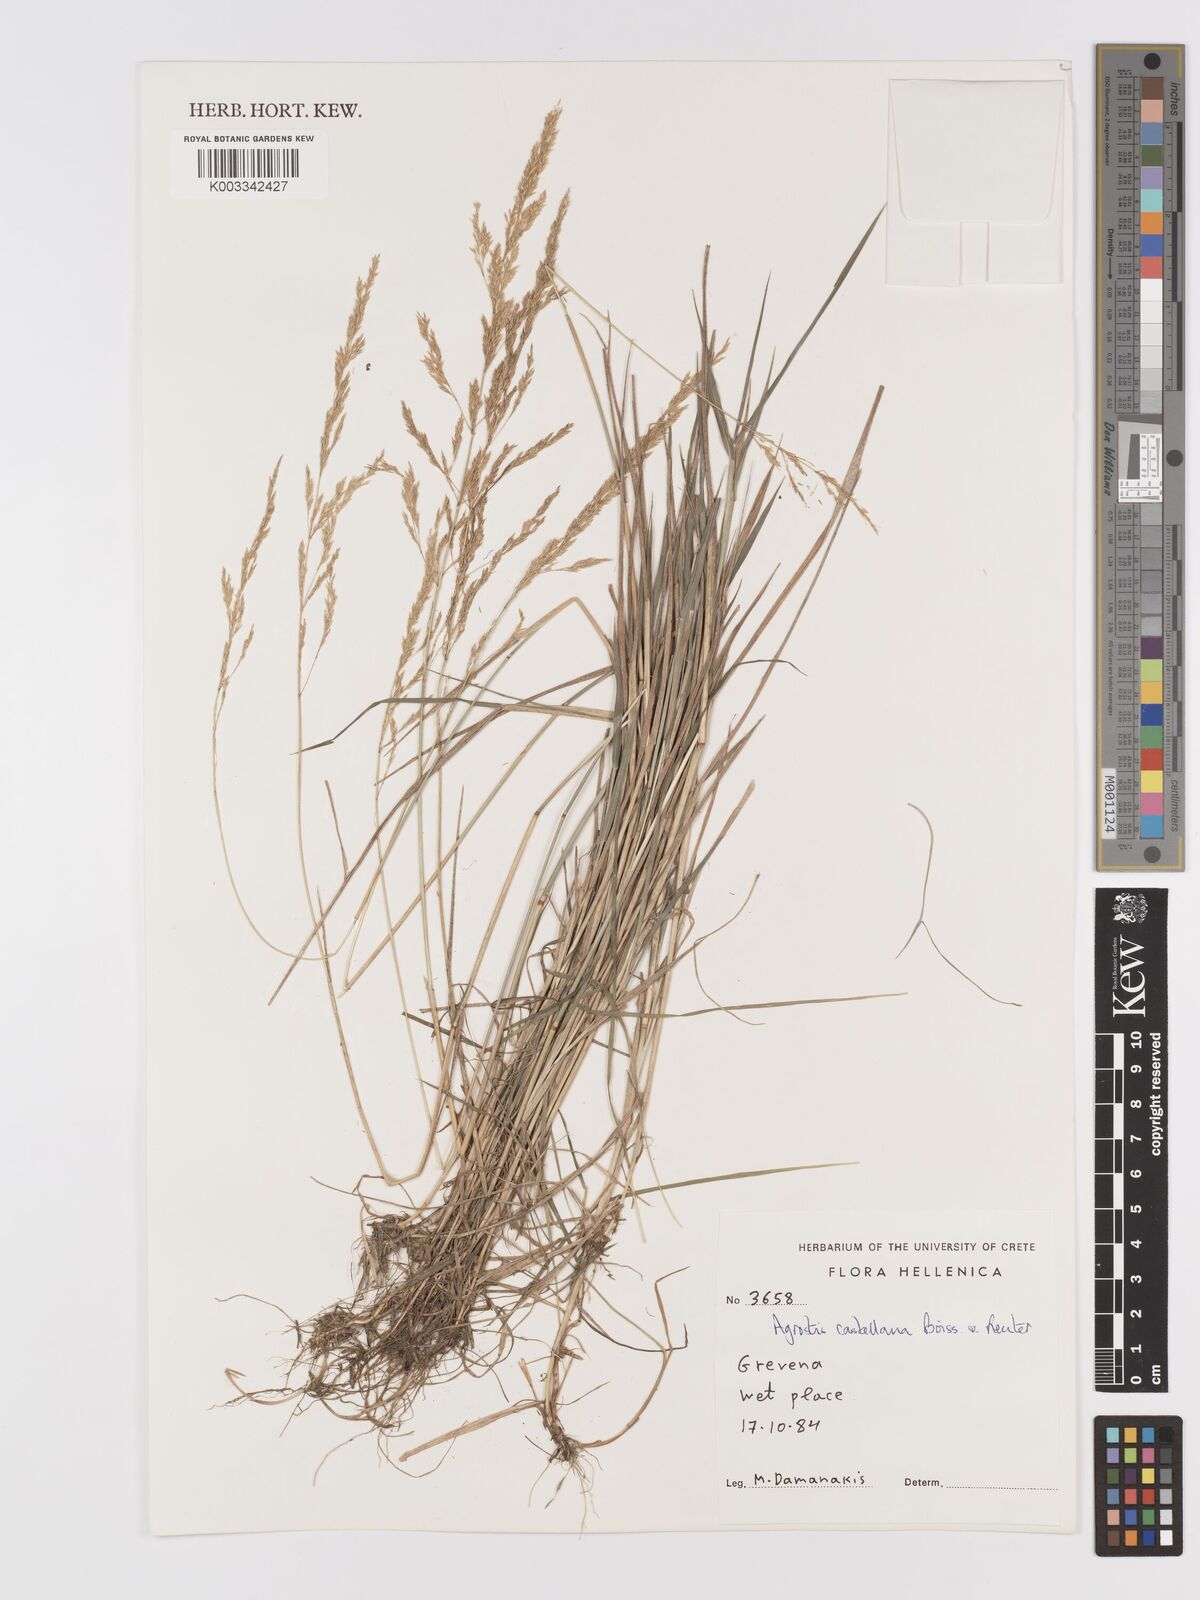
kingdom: Plantae
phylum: Tracheophyta
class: Liliopsida
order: Poales
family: Poaceae
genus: Agrostis
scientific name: Agrostis castellana
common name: Highland bent
